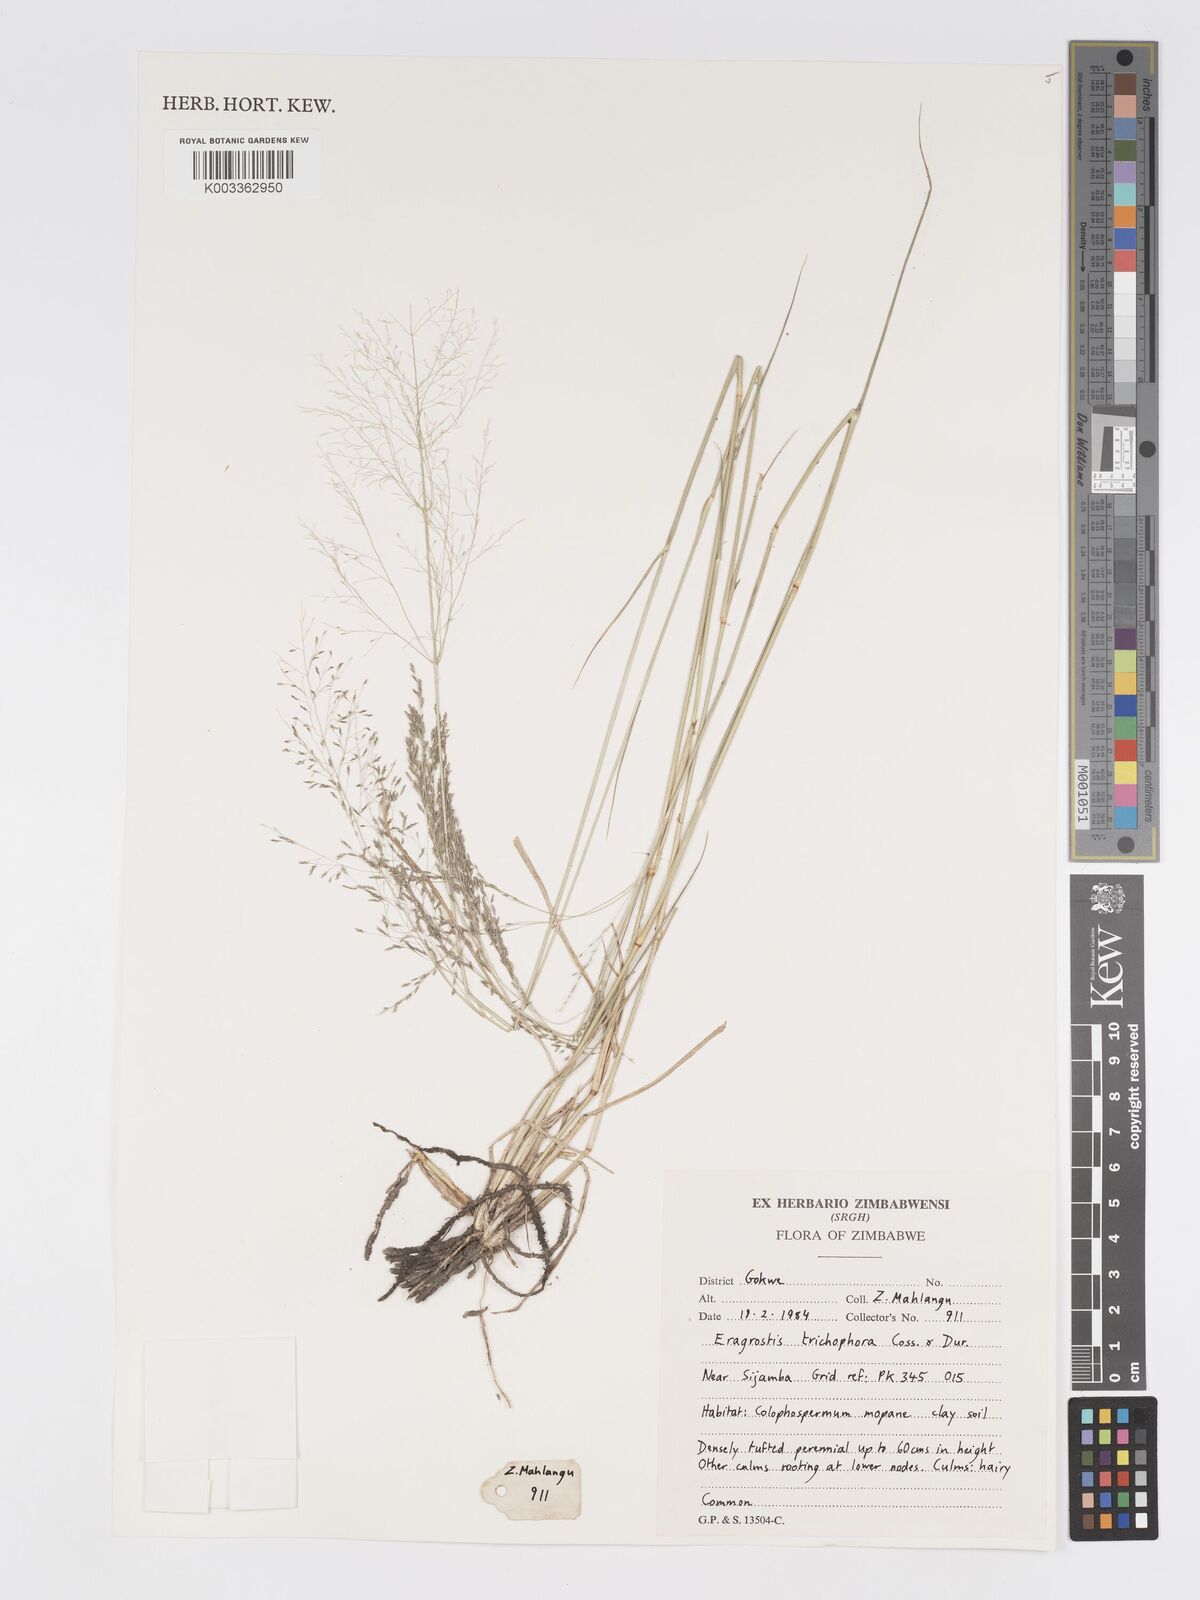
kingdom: Plantae
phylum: Tracheophyta
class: Liliopsida
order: Poales
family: Poaceae
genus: Eragrostis
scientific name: Eragrostis cylindriflora
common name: Cylinderflower lovegrass
